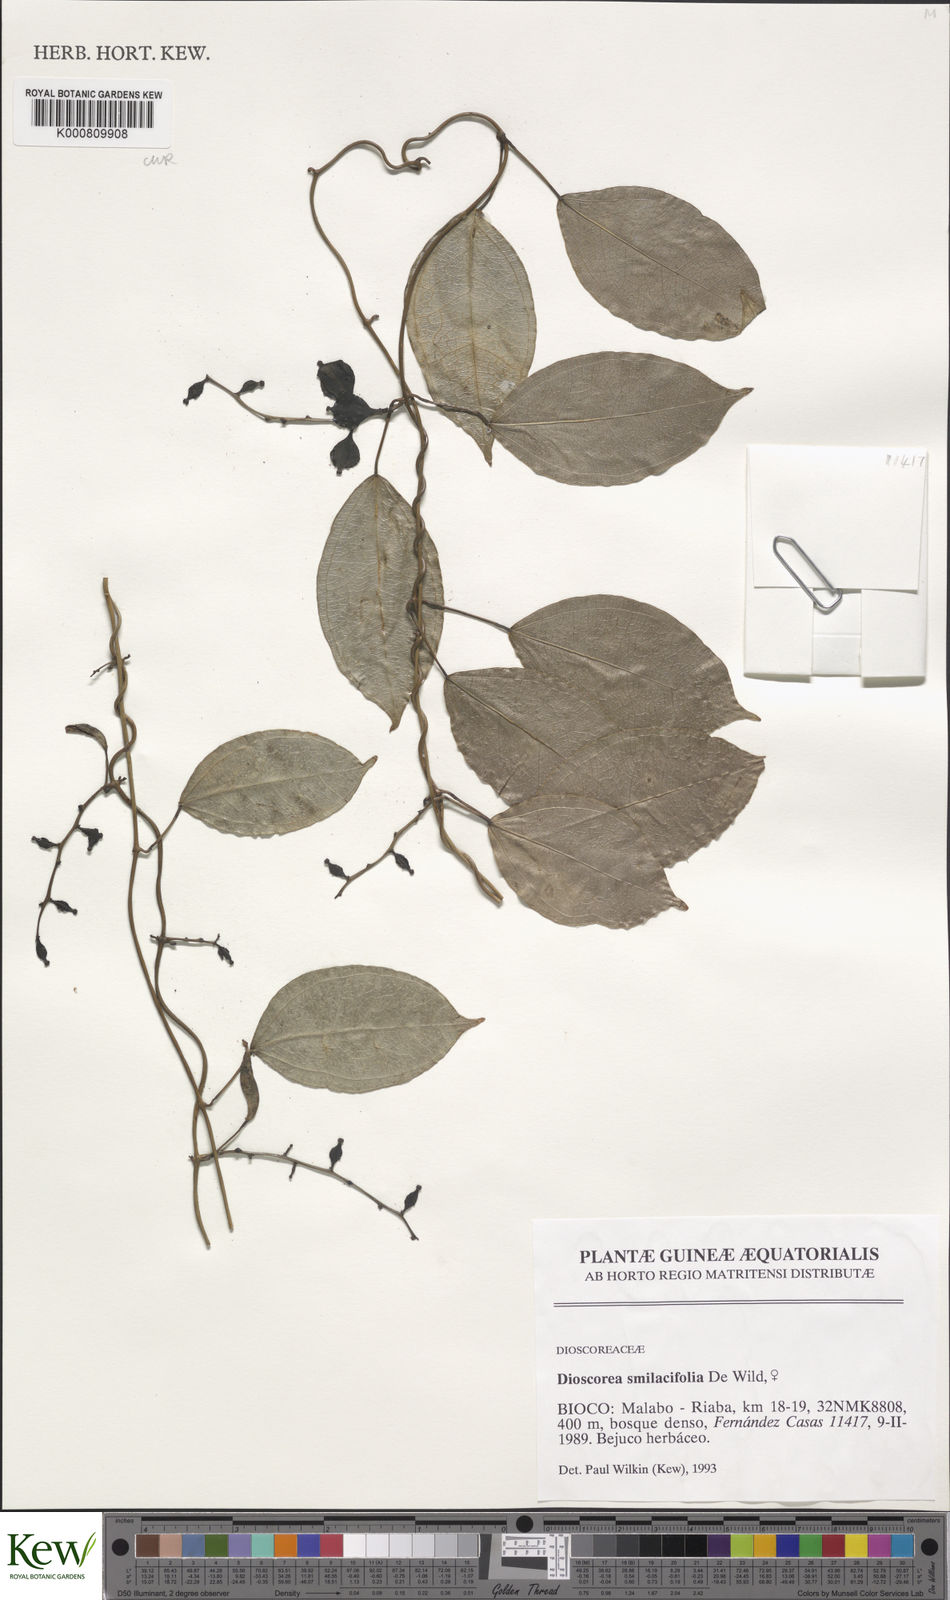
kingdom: Plantae
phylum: Tracheophyta
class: Liliopsida
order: Dioscoreales
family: Dioscoreaceae
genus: Dioscorea
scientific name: Dioscorea smilacifolia
